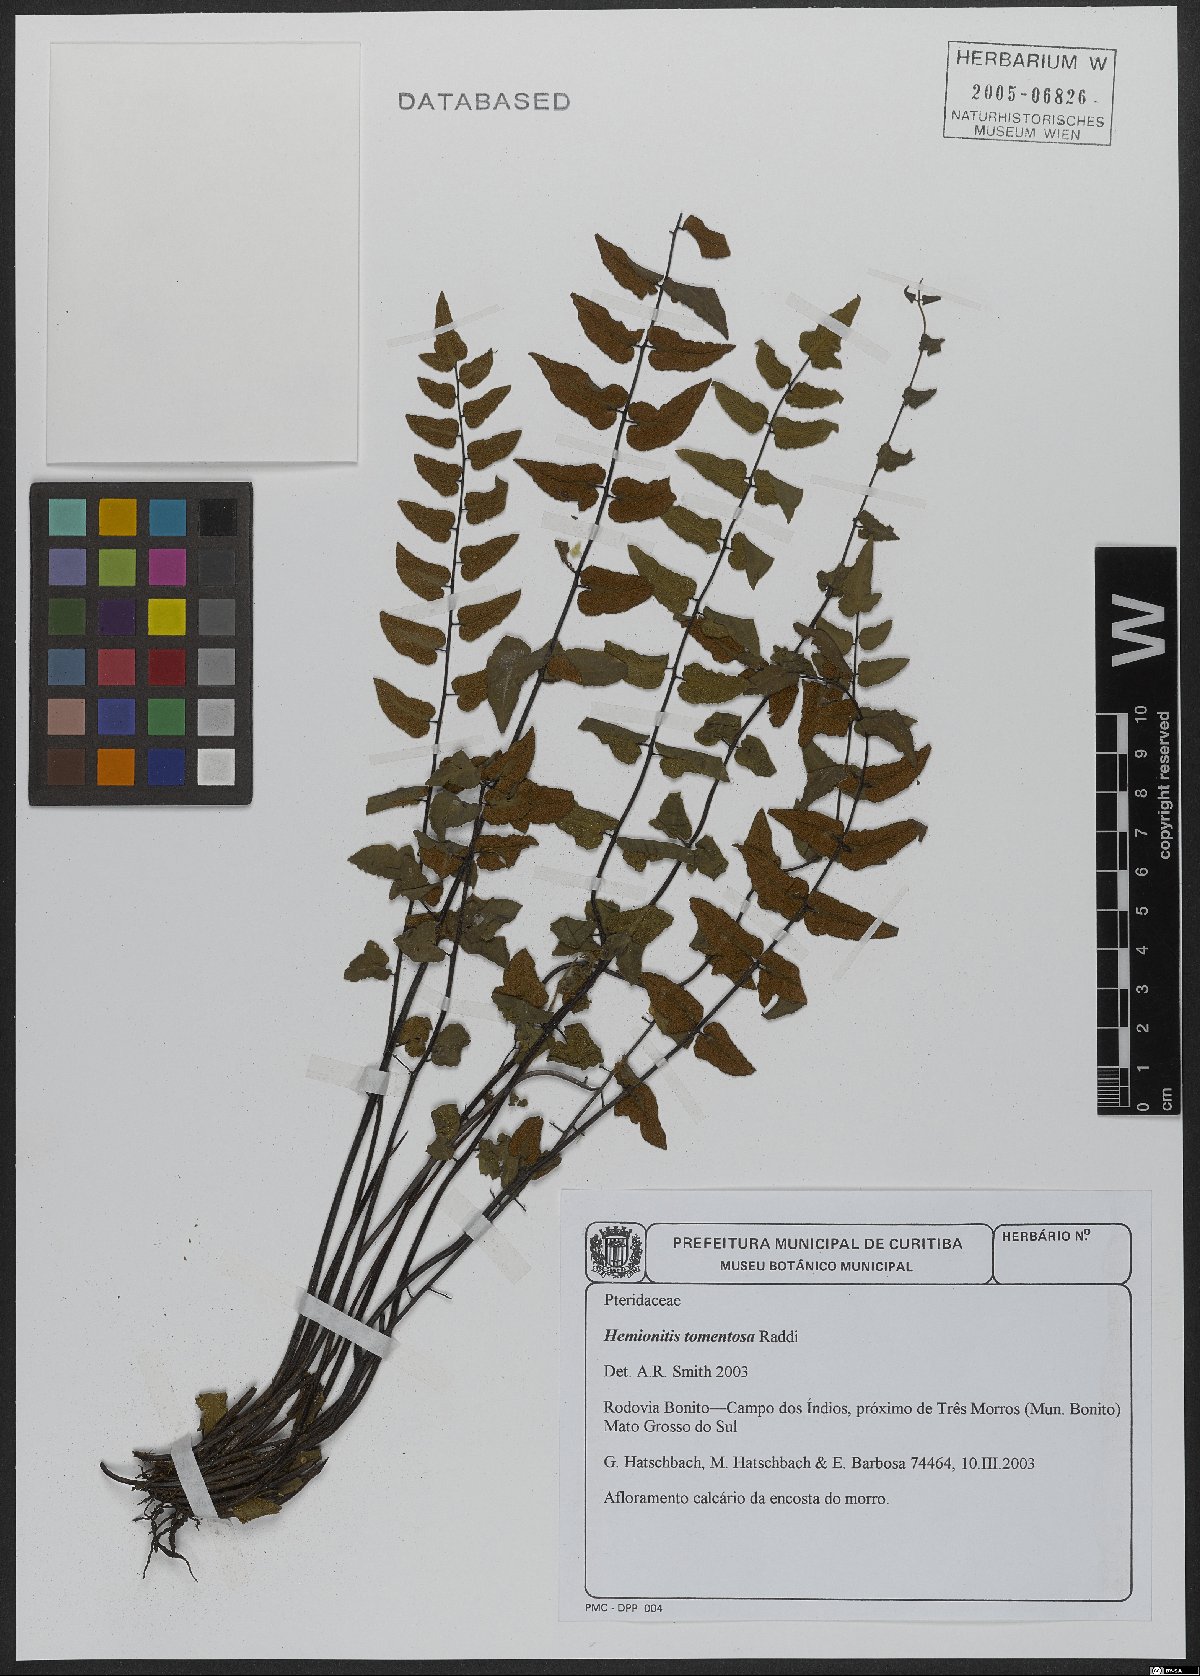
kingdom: Plantae
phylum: Tracheophyta
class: Polypodiopsida
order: Polypodiales
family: Pteridaceae
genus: Hemionitis
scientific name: Hemionitis tomentosa
